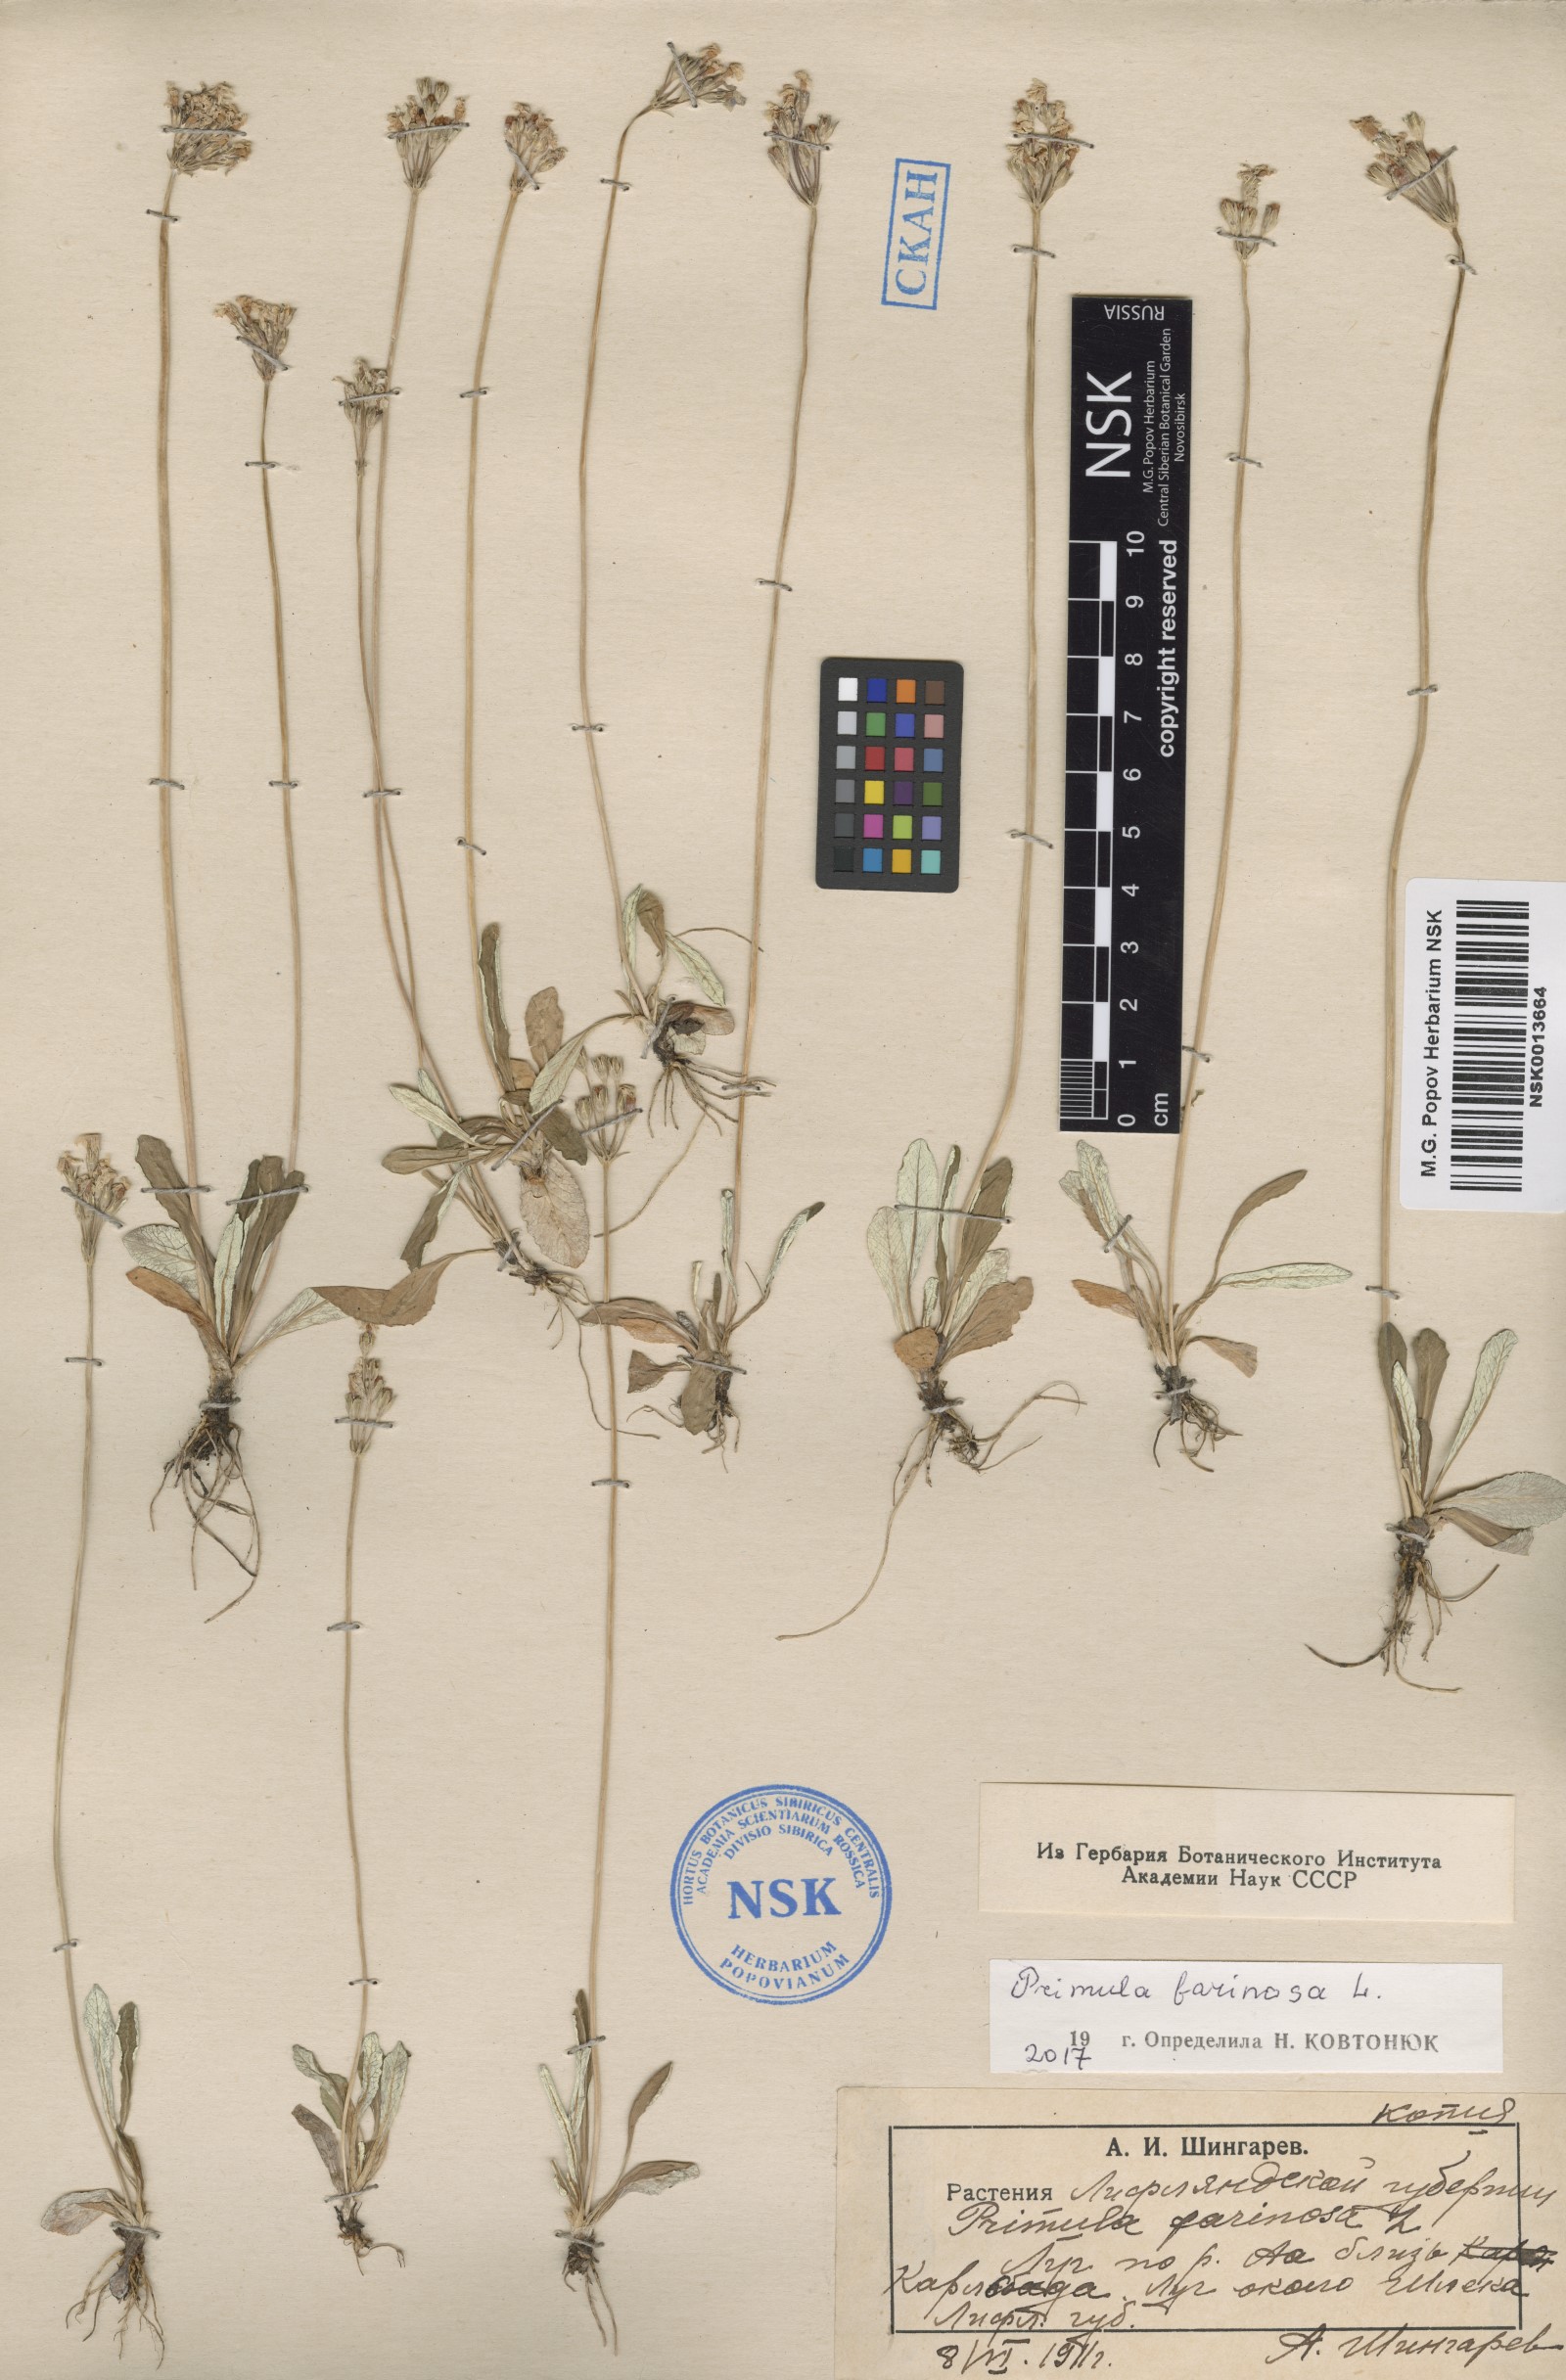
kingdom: Plantae
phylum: Tracheophyta
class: Magnoliopsida
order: Ericales
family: Primulaceae
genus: Primula
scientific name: Primula farinosa
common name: Bird's-eye primrose
